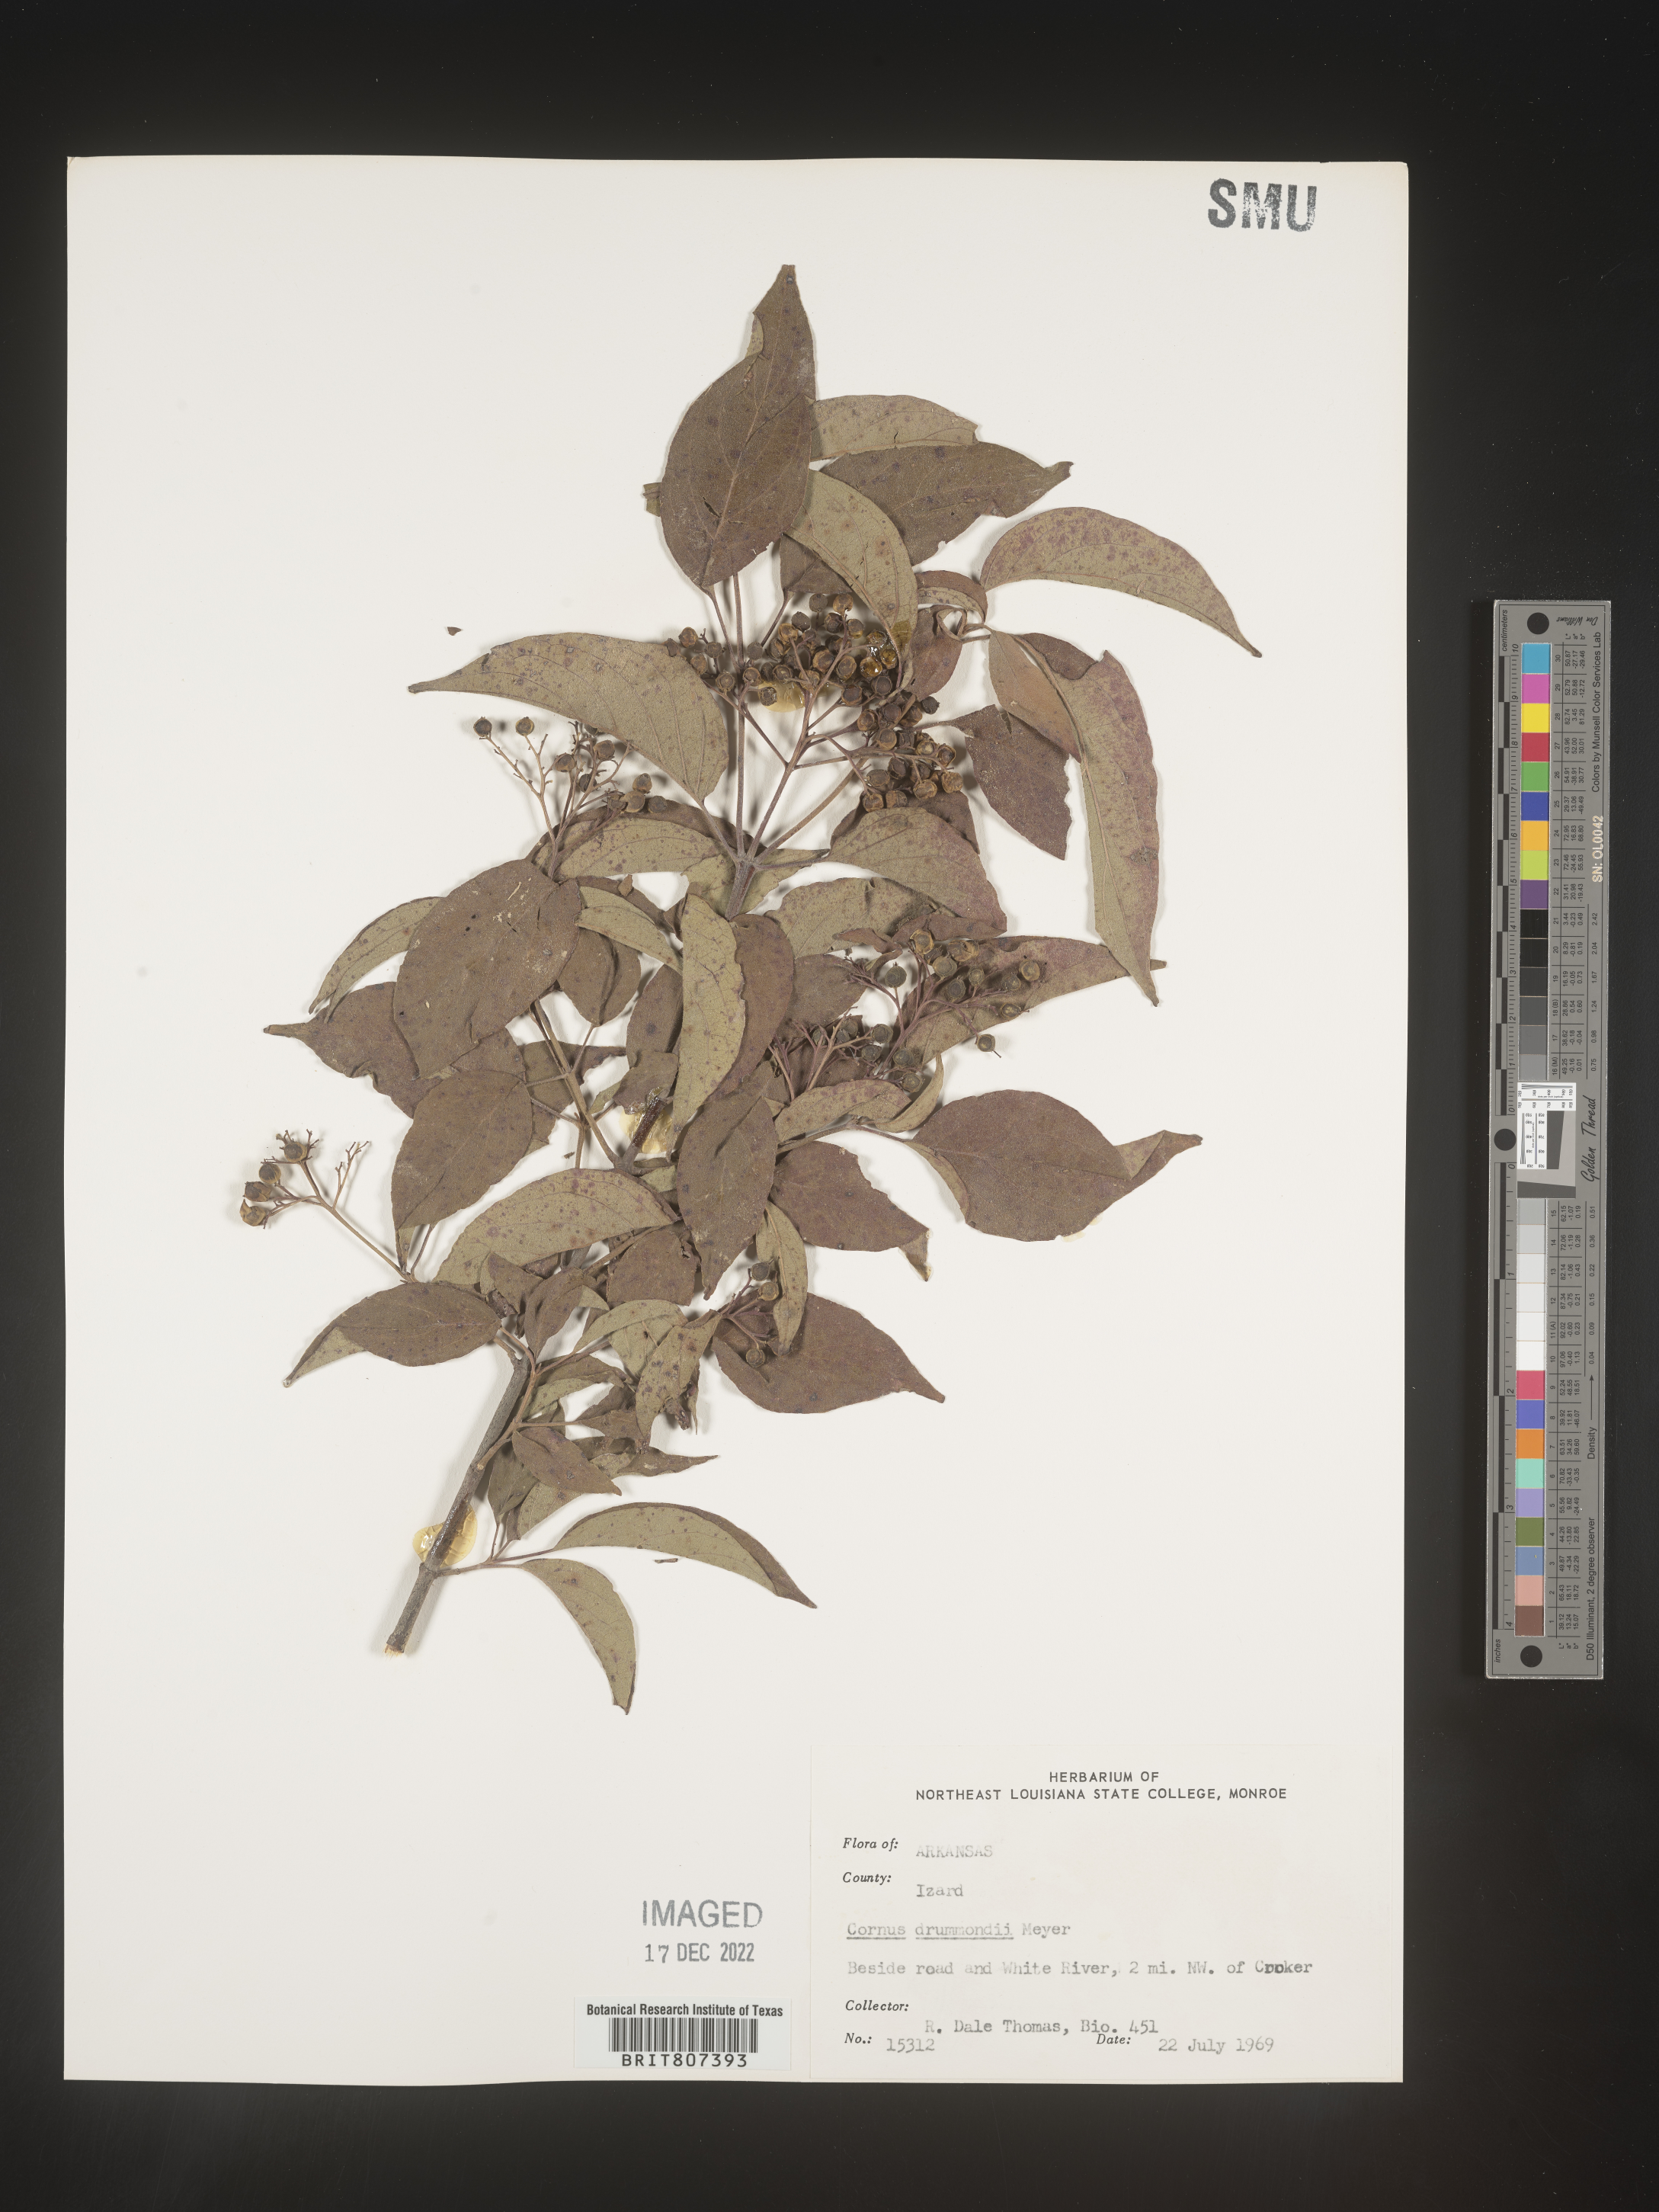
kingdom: Plantae
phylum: Tracheophyta
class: Magnoliopsida
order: Cornales
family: Cornaceae
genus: Cornus
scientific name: Cornus drummondii
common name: Rough-leaf dogwood
